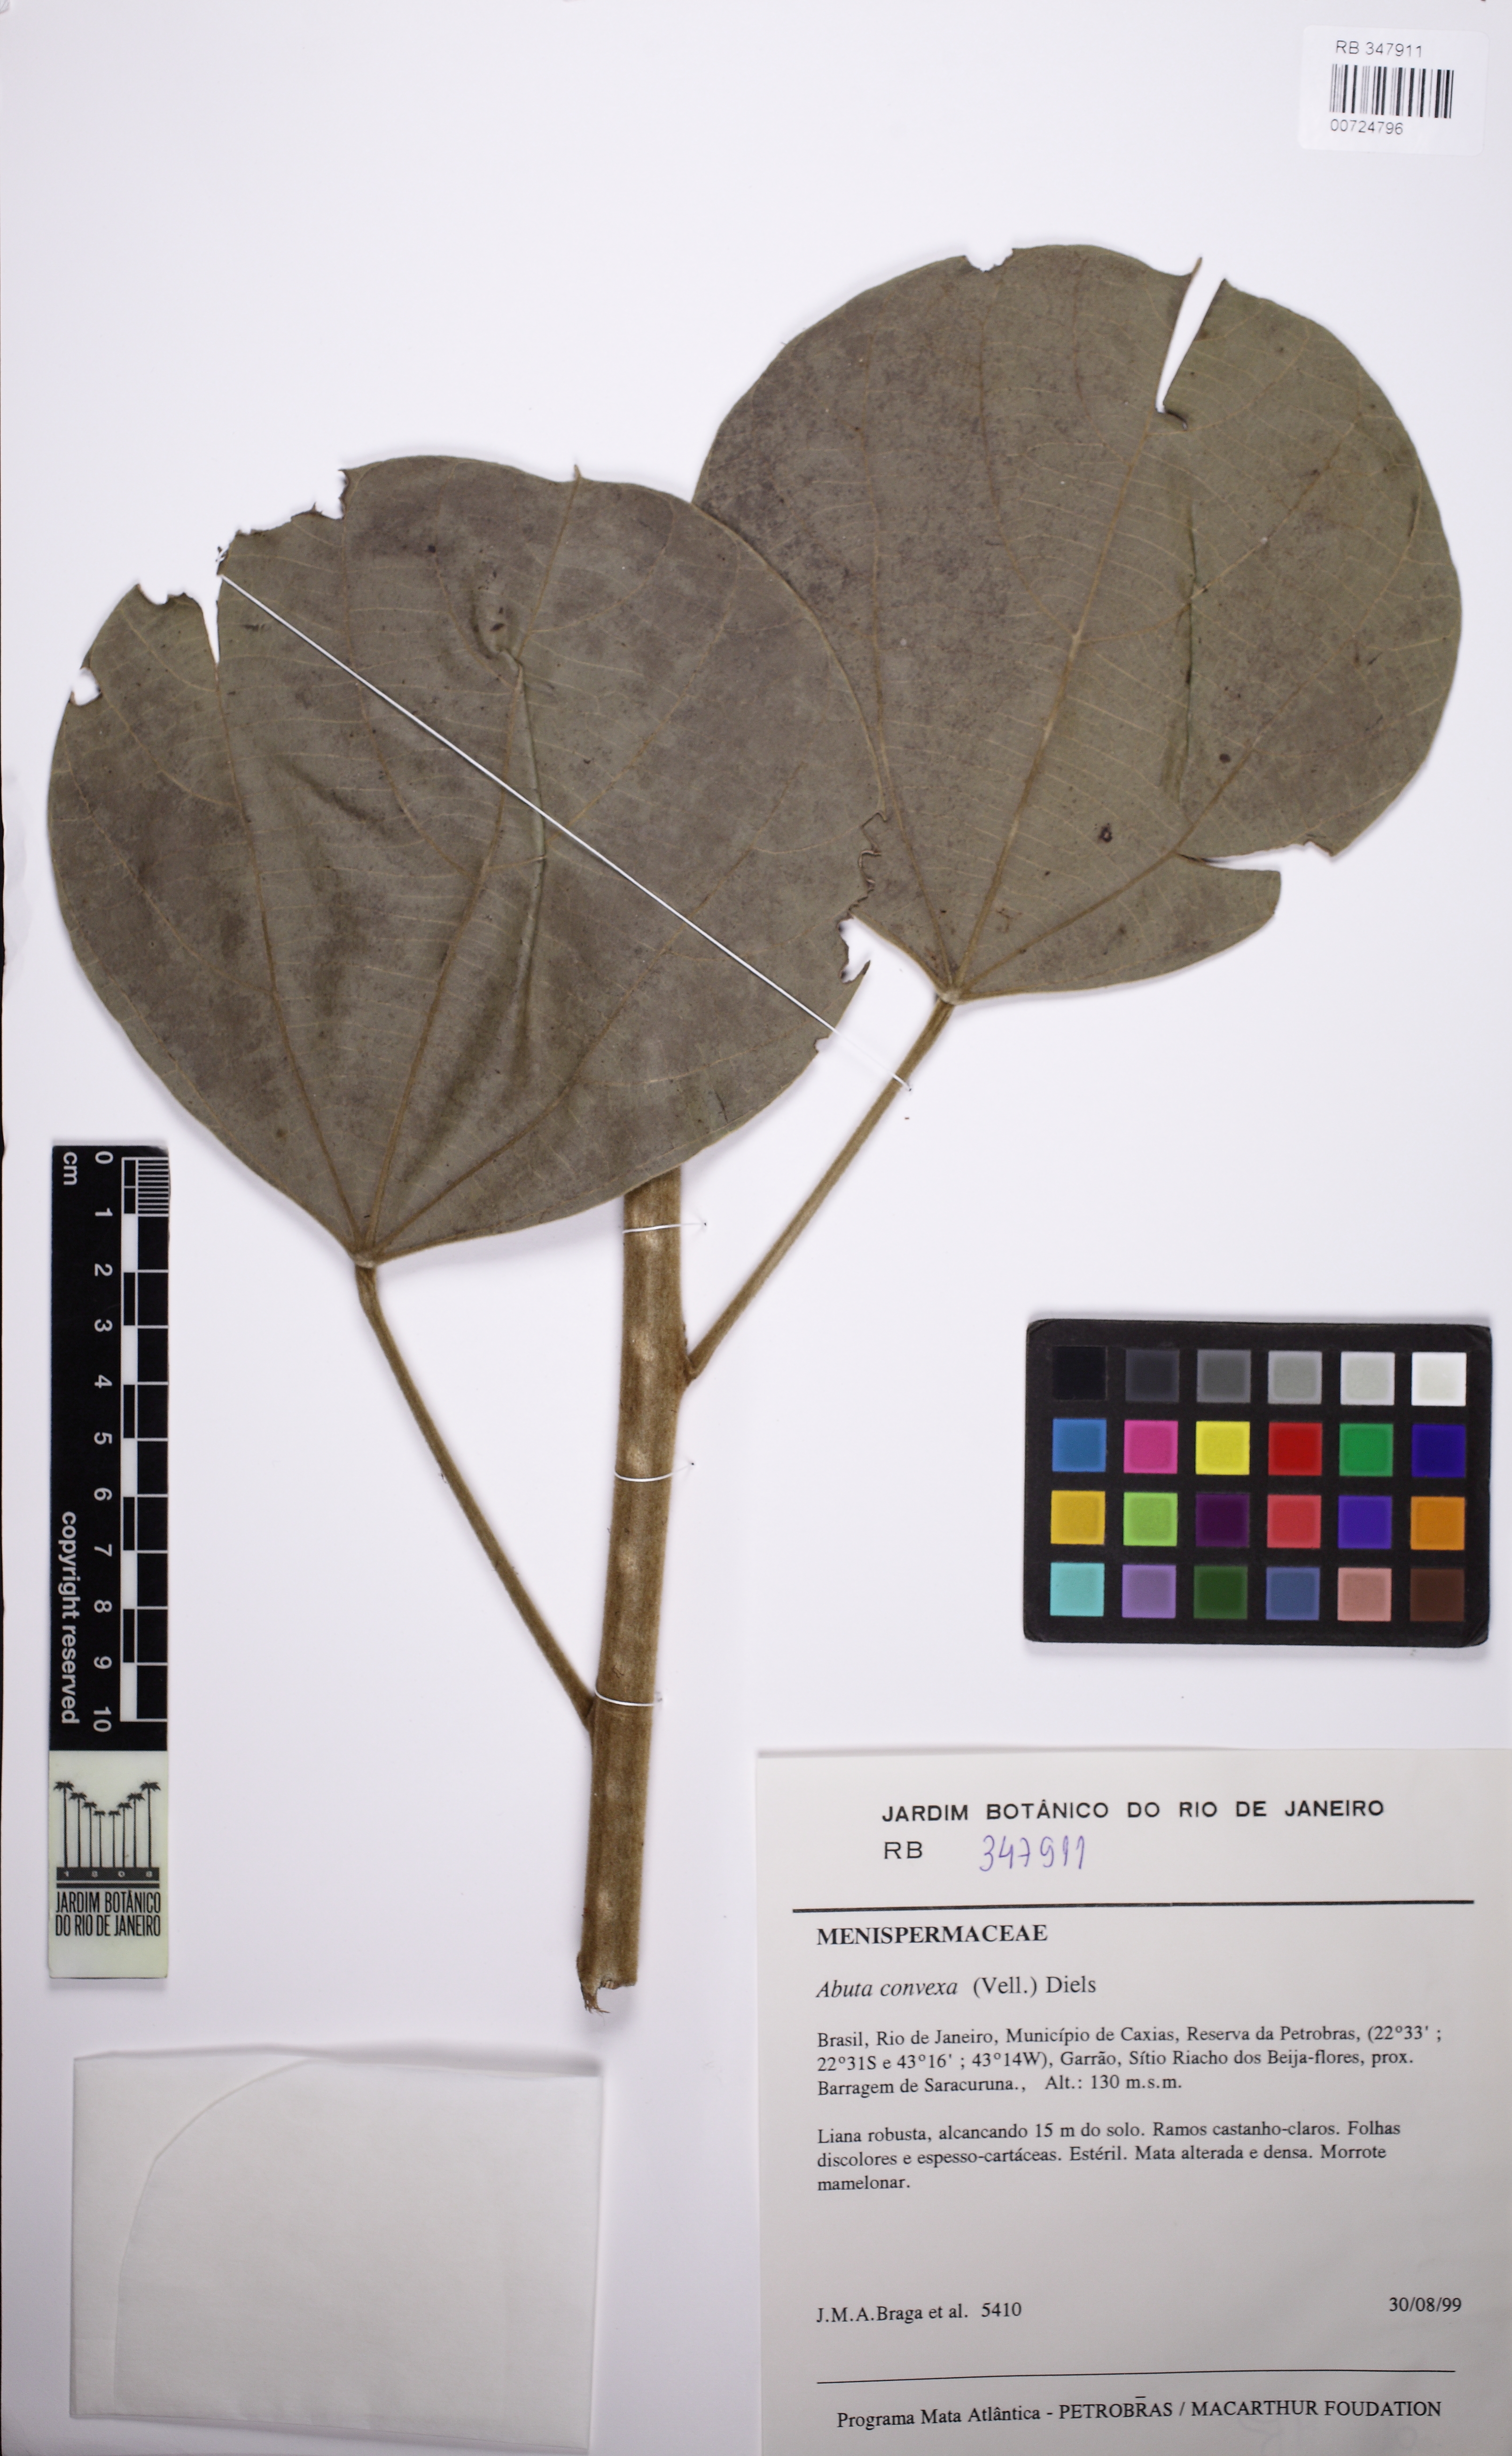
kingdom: Plantae
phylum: Tracheophyta
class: Magnoliopsida
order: Ranunculales
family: Menispermaceae
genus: Abuta
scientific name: Abuta rufescens
